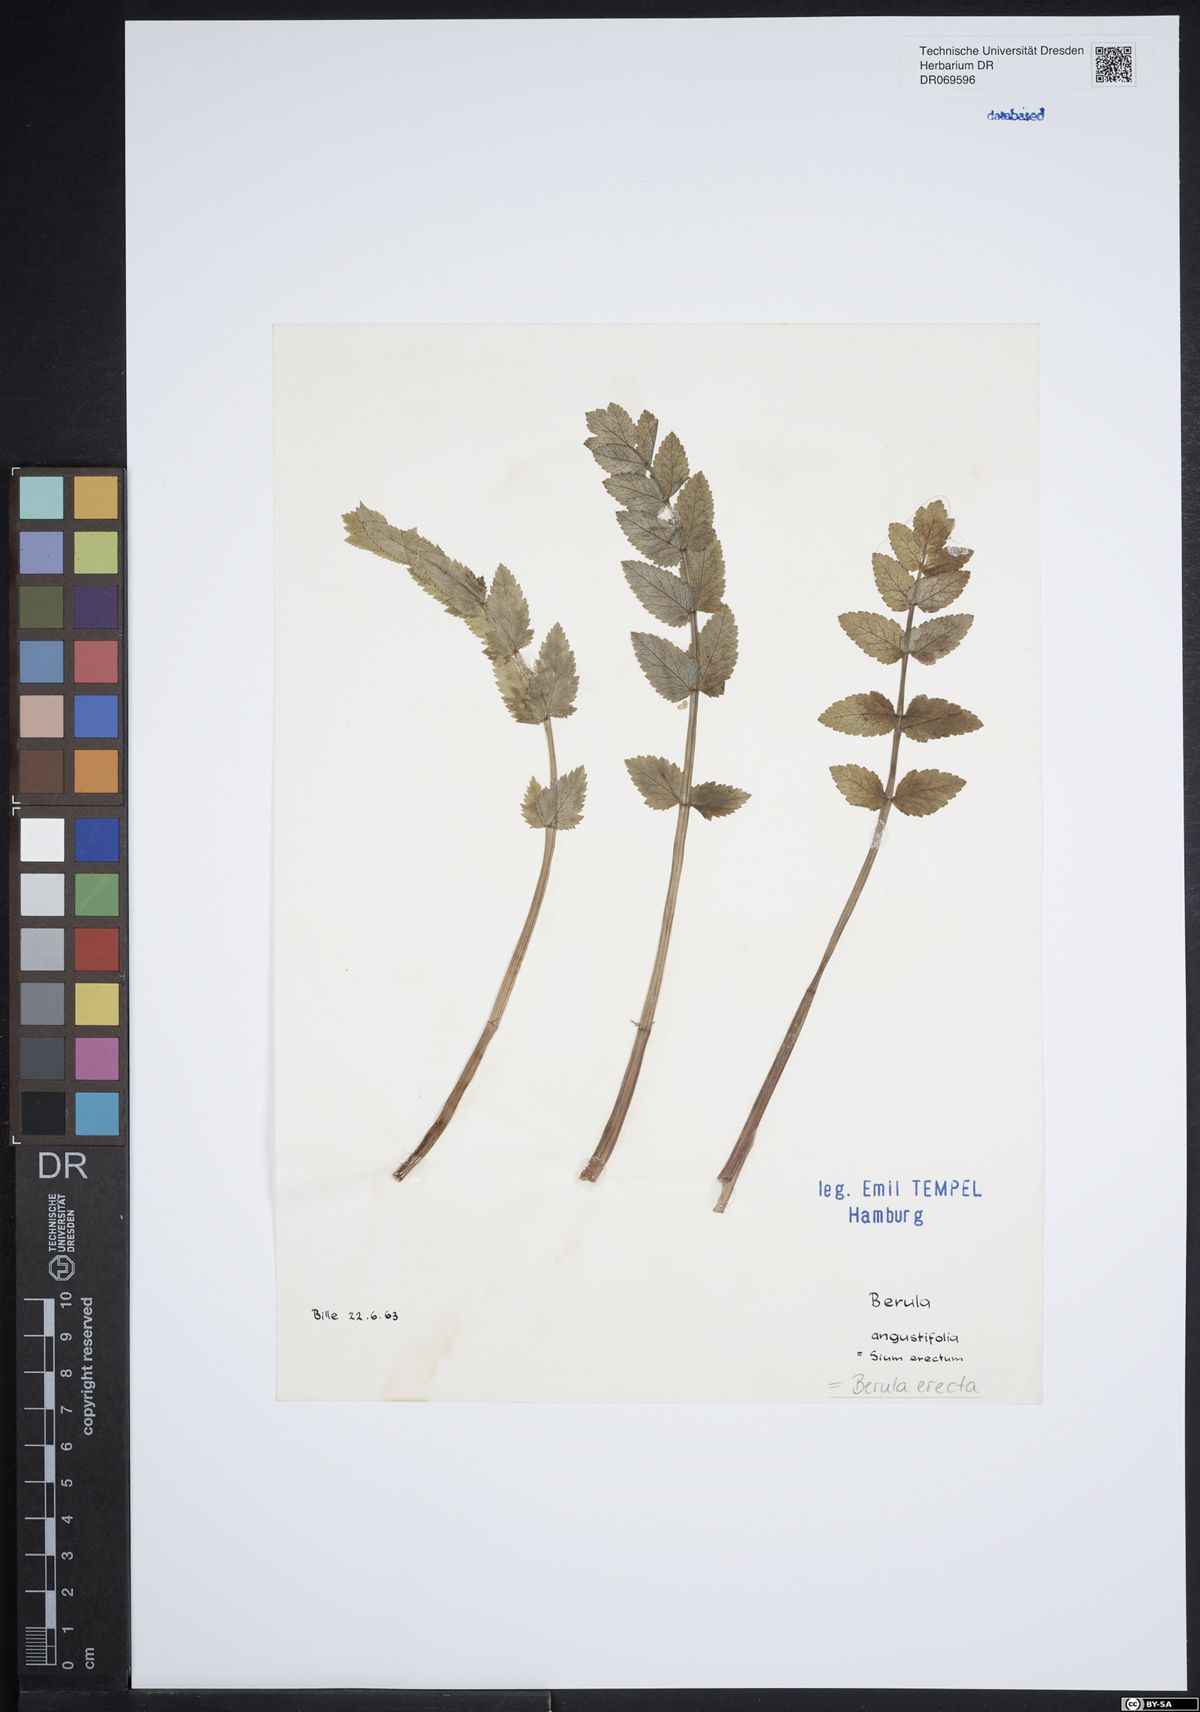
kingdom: Plantae
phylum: Tracheophyta
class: Magnoliopsida
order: Apiales
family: Apiaceae
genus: Berula
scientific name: Berula erecta
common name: Lesser water-parsnip
